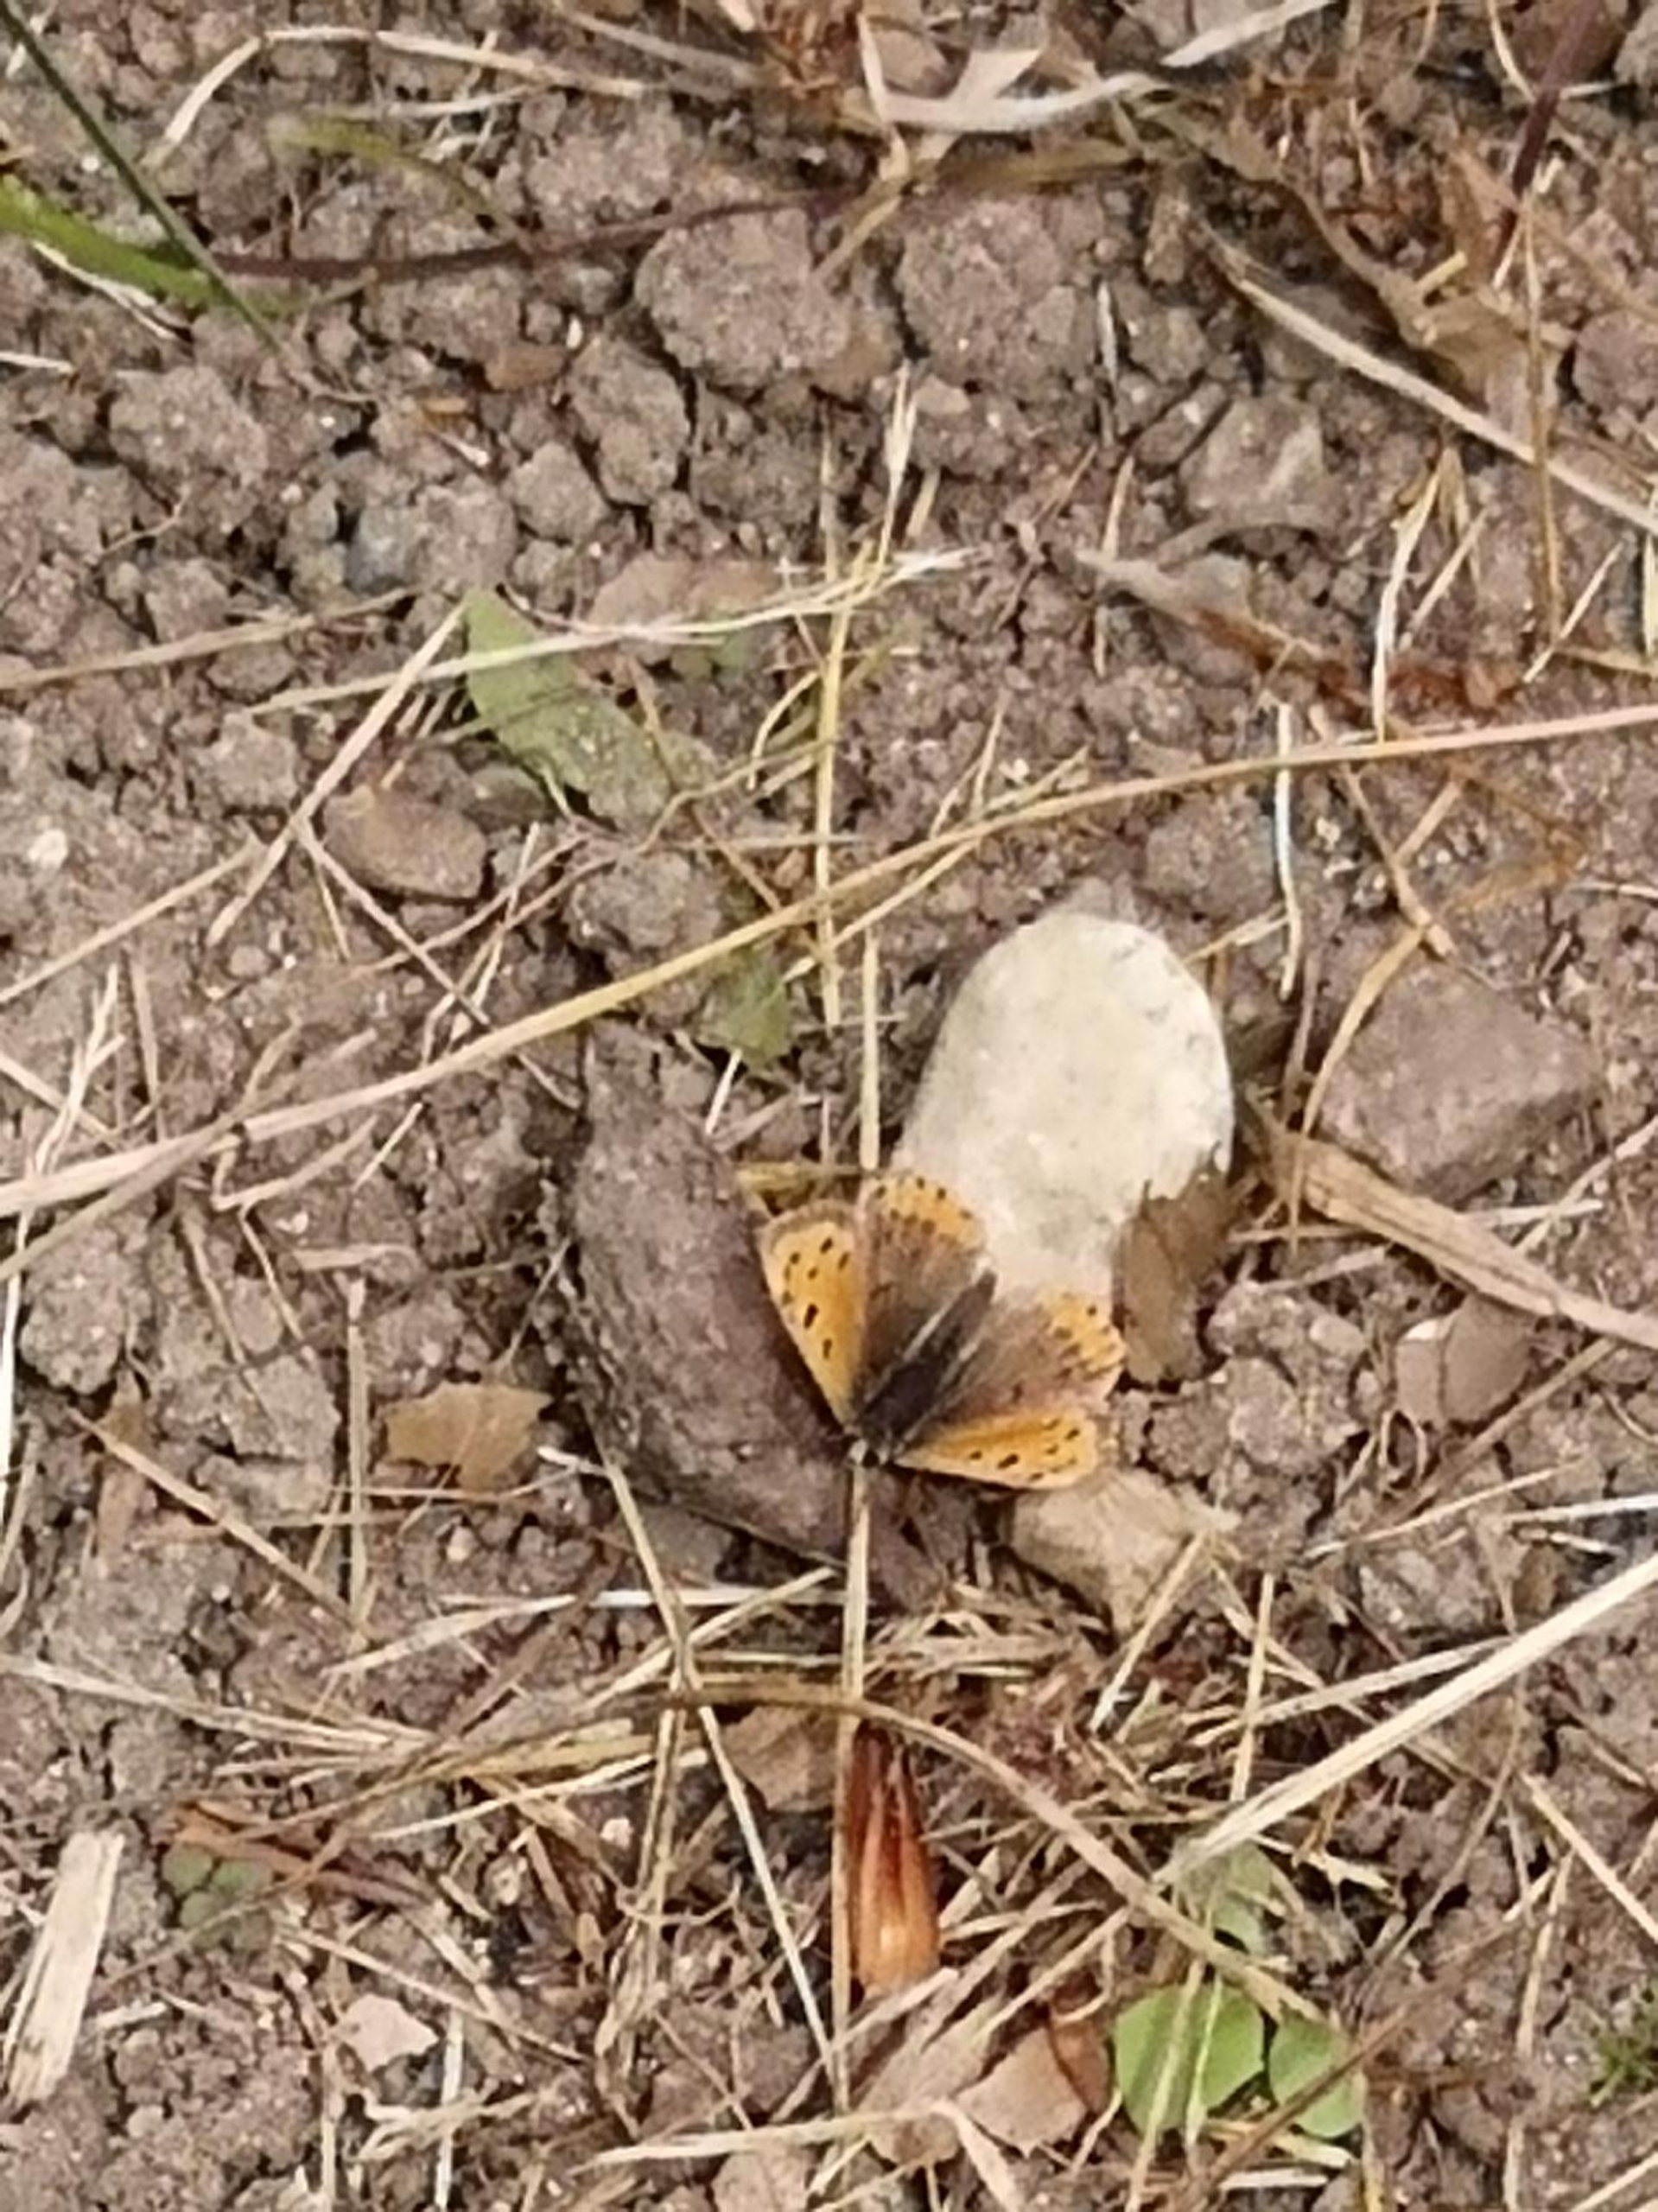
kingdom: Animalia
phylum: Arthropoda
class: Insecta
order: Lepidoptera
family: Lycaenidae
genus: Lycaena
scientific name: Lycaena phlaeas
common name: Lille ildfugl
